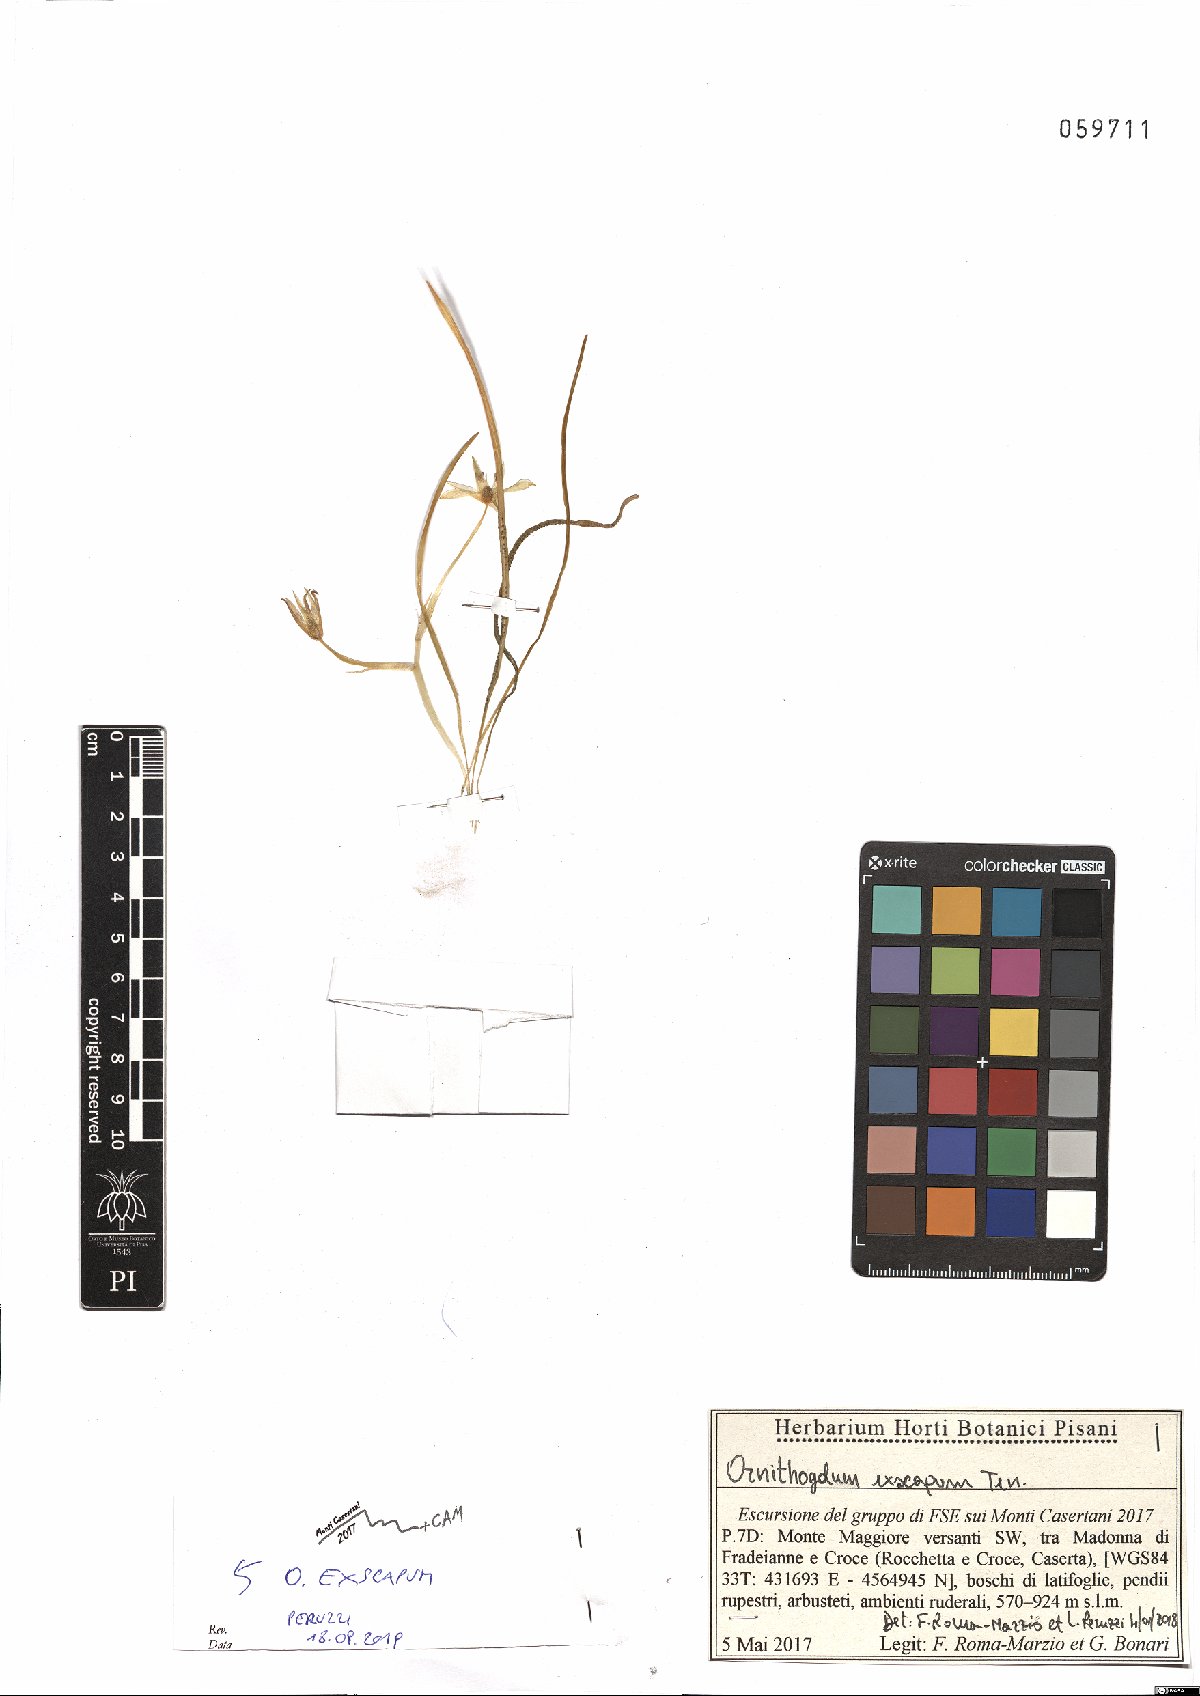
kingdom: Plantae
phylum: Tracheophyta
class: Liliopsida
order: Asparagales
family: Asparagaceae
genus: Ornithogalum
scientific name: Ornithogalum exscapum
